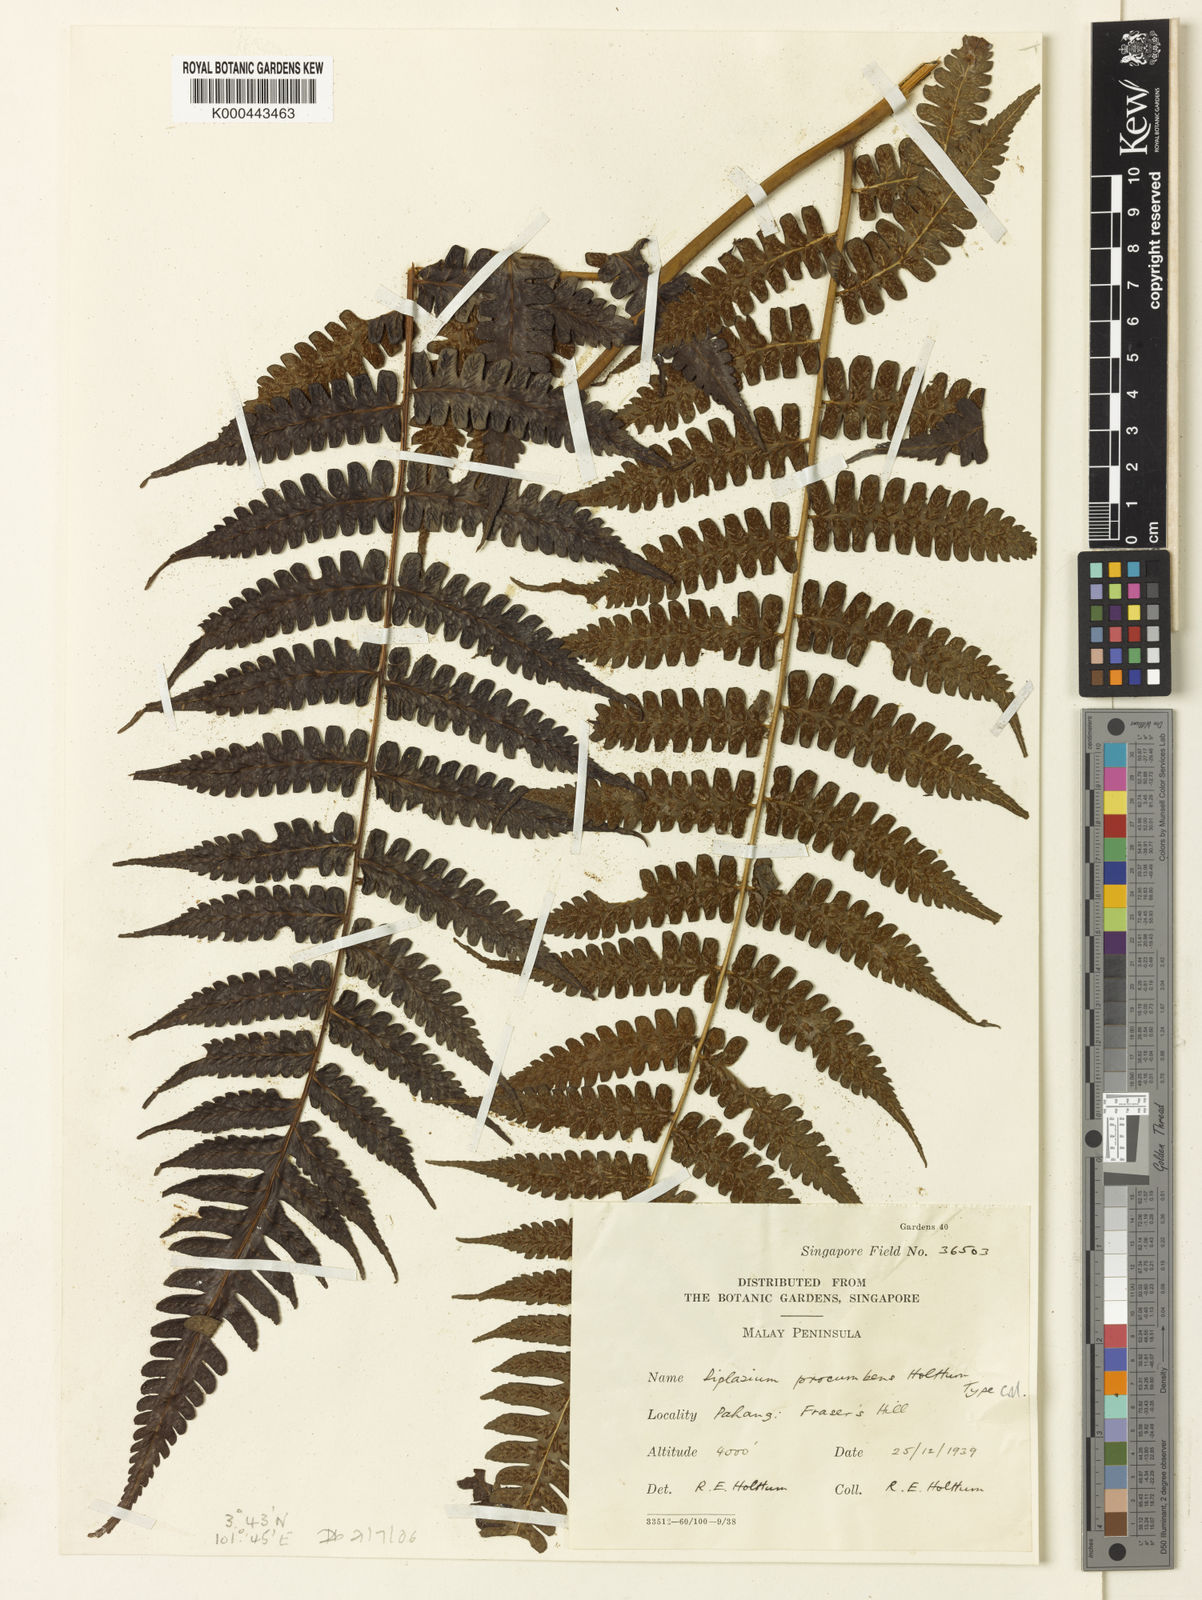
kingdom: Plantae
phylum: Tracheophyta
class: Polypodiopsida
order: Polypodiales
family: Athyriaceae
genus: Diplazium
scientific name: Diplazium procumbens
